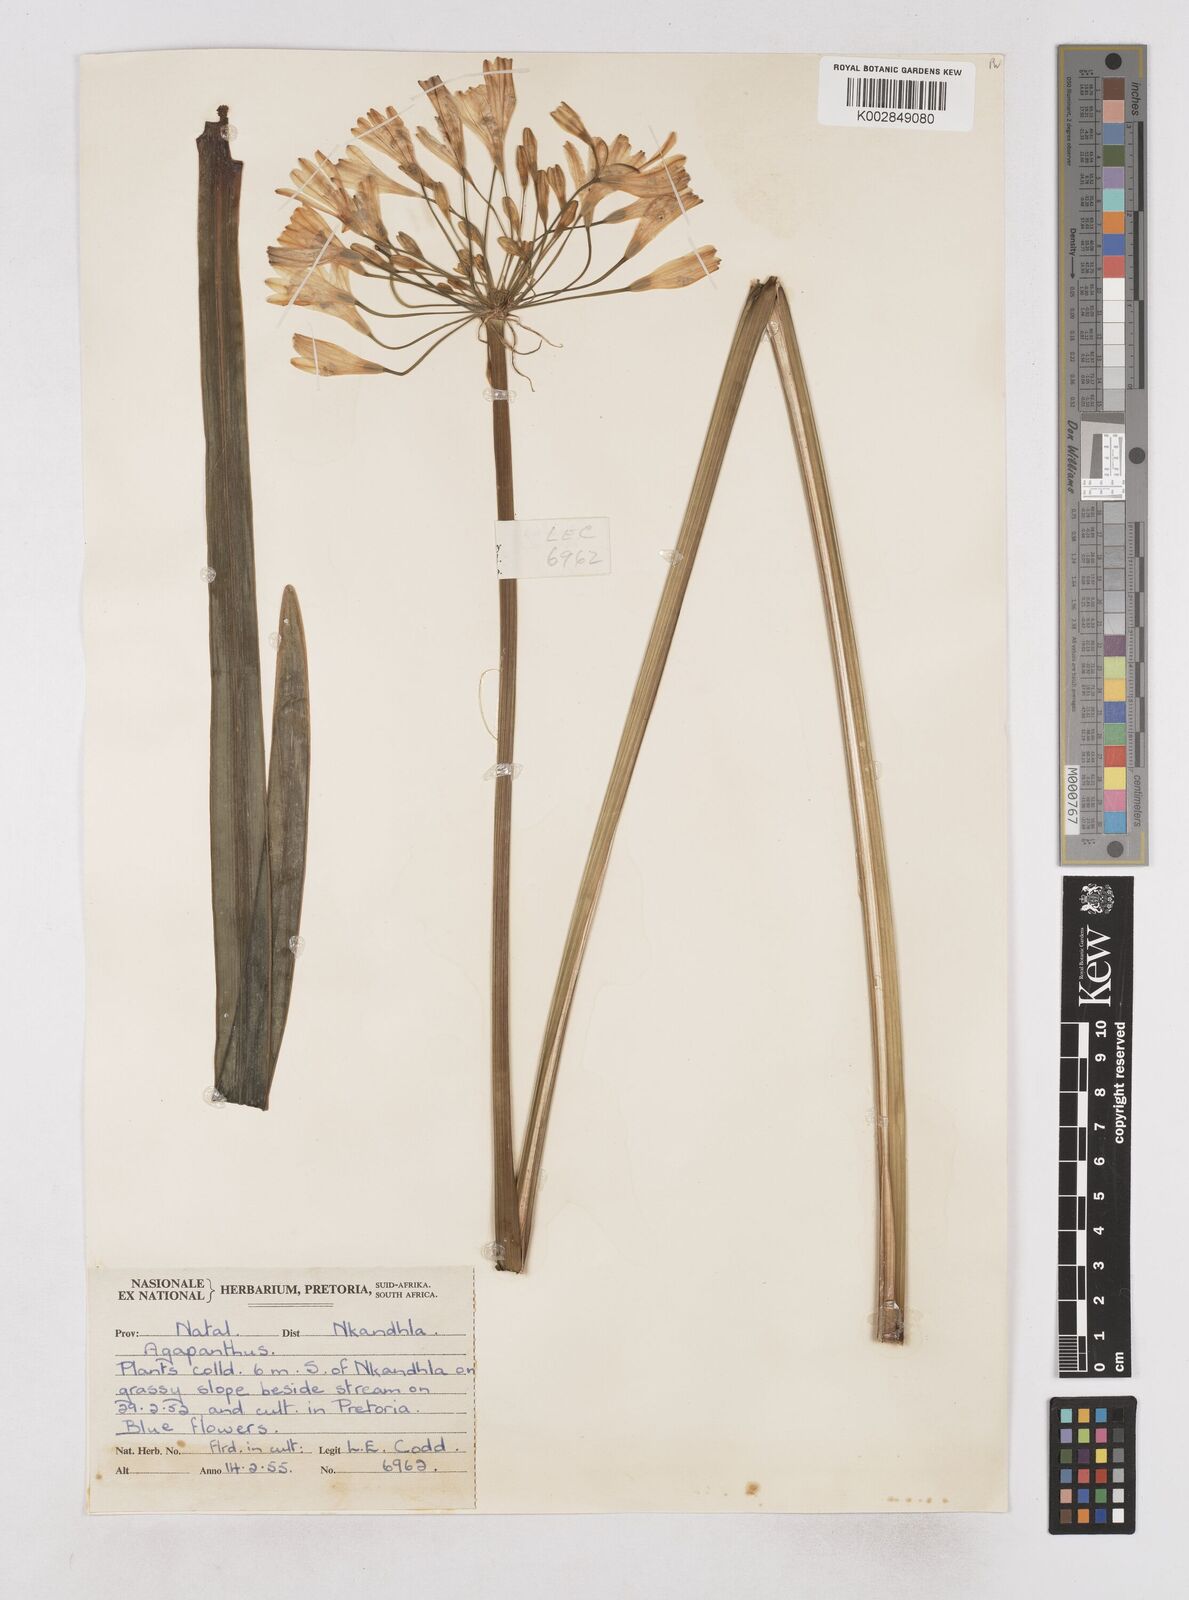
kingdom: Plantae
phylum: Tracheophyta
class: Liliopsida
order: Asparagales
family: Amaryllidaceae
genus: Agapanthus
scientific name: Agapanthus campanulatus
